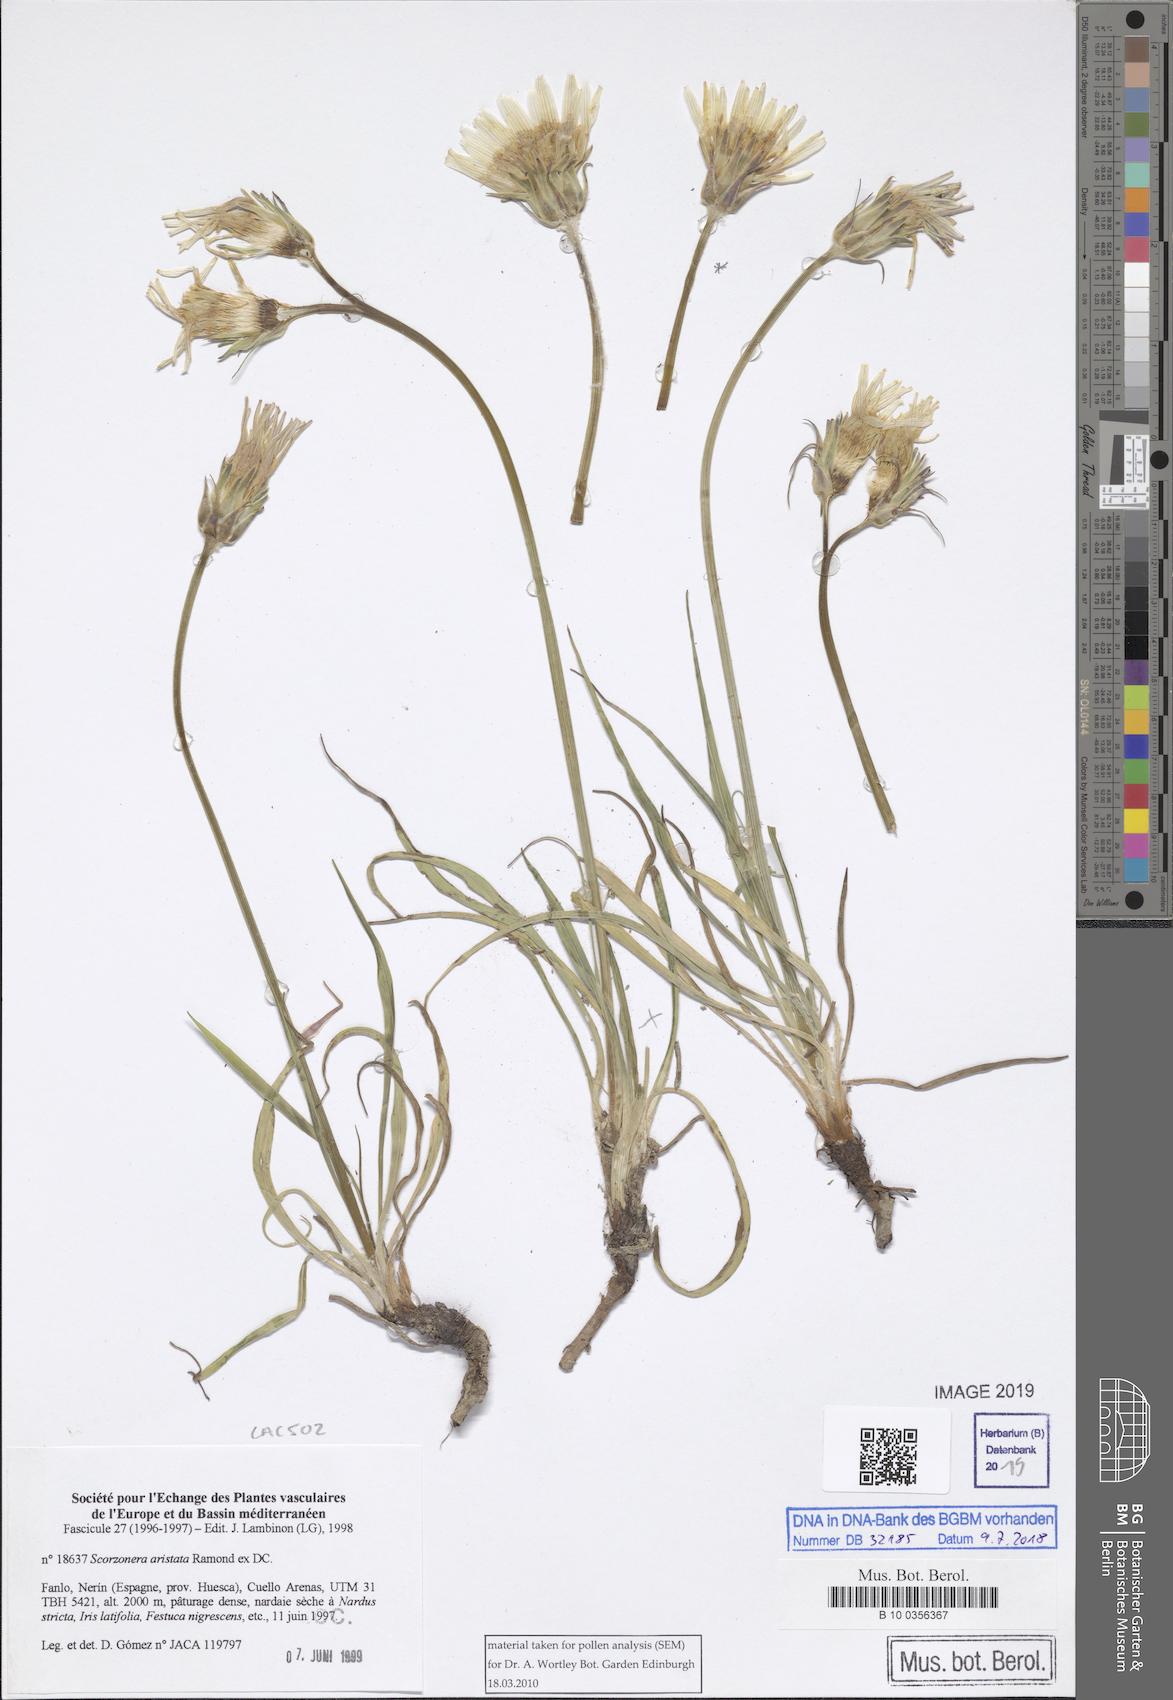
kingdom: Plantae
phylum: Tracheophyta
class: Magnoliopsida
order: Asterales
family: Asteraceae
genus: Scorzonera
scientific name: Scorzonera aristata
